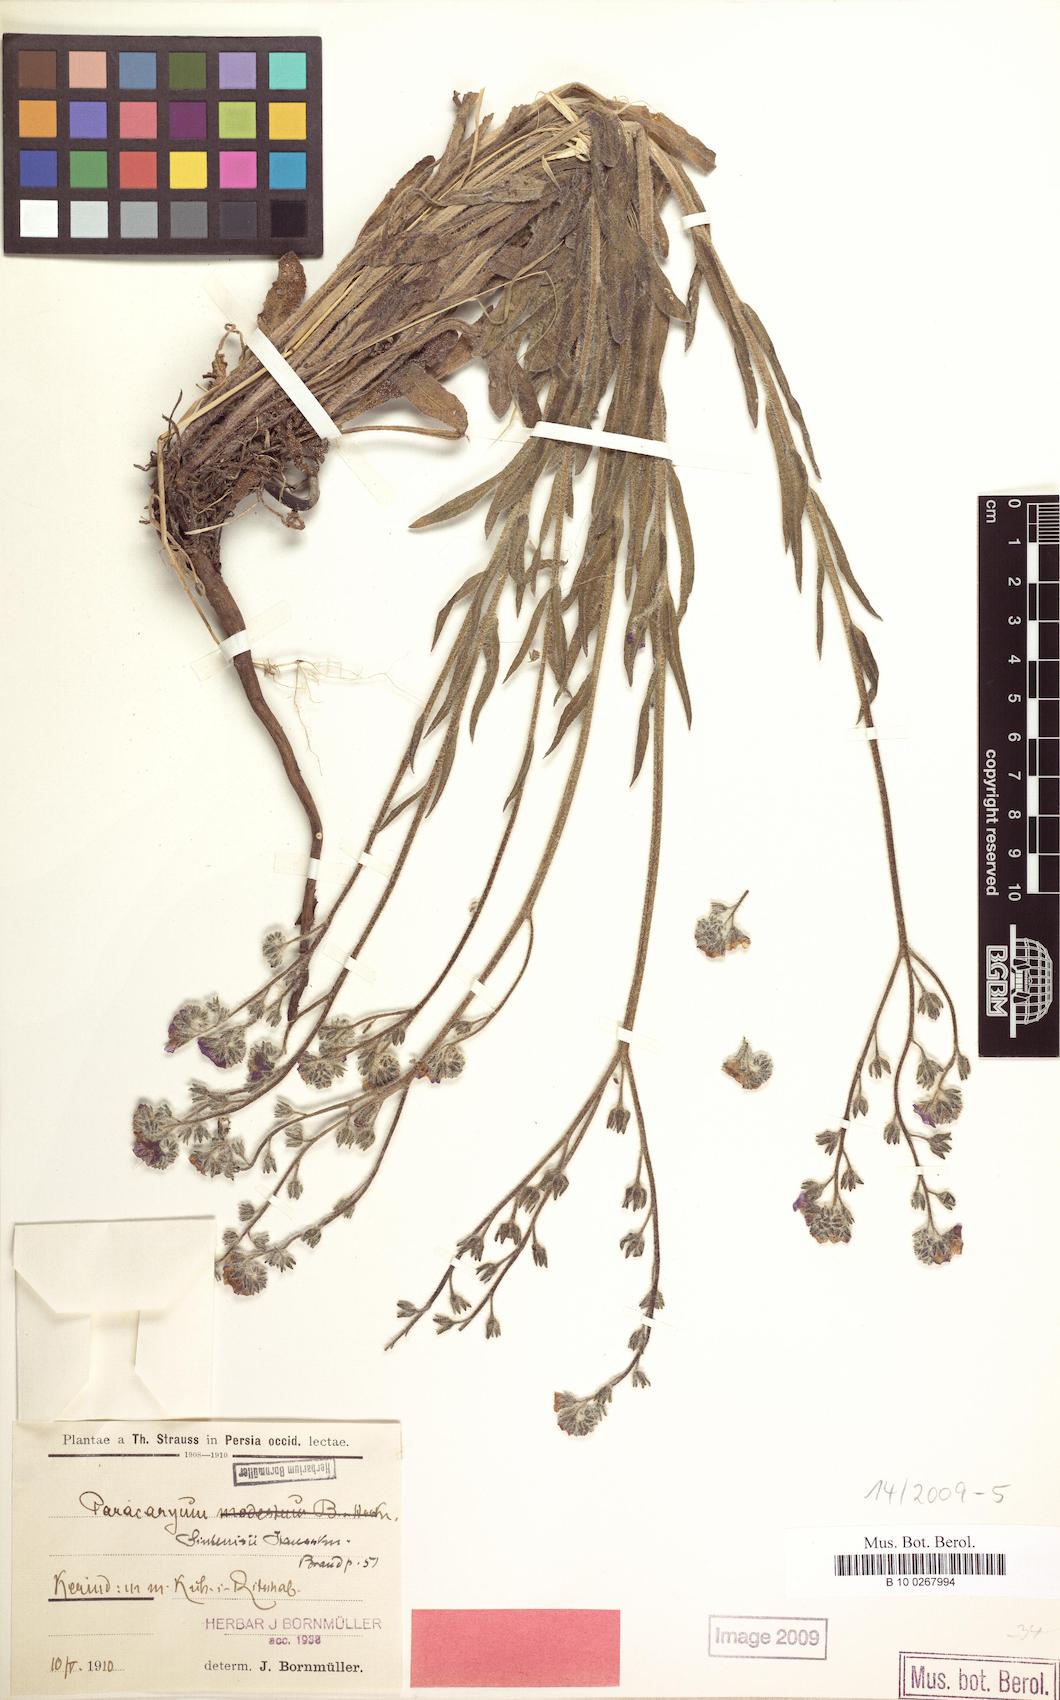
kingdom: Plantae
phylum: Tracheophyta
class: Magnoliopsida
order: Boraginales
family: Boraginaceae
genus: Paracaryum
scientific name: Paracaryum sintenisii
